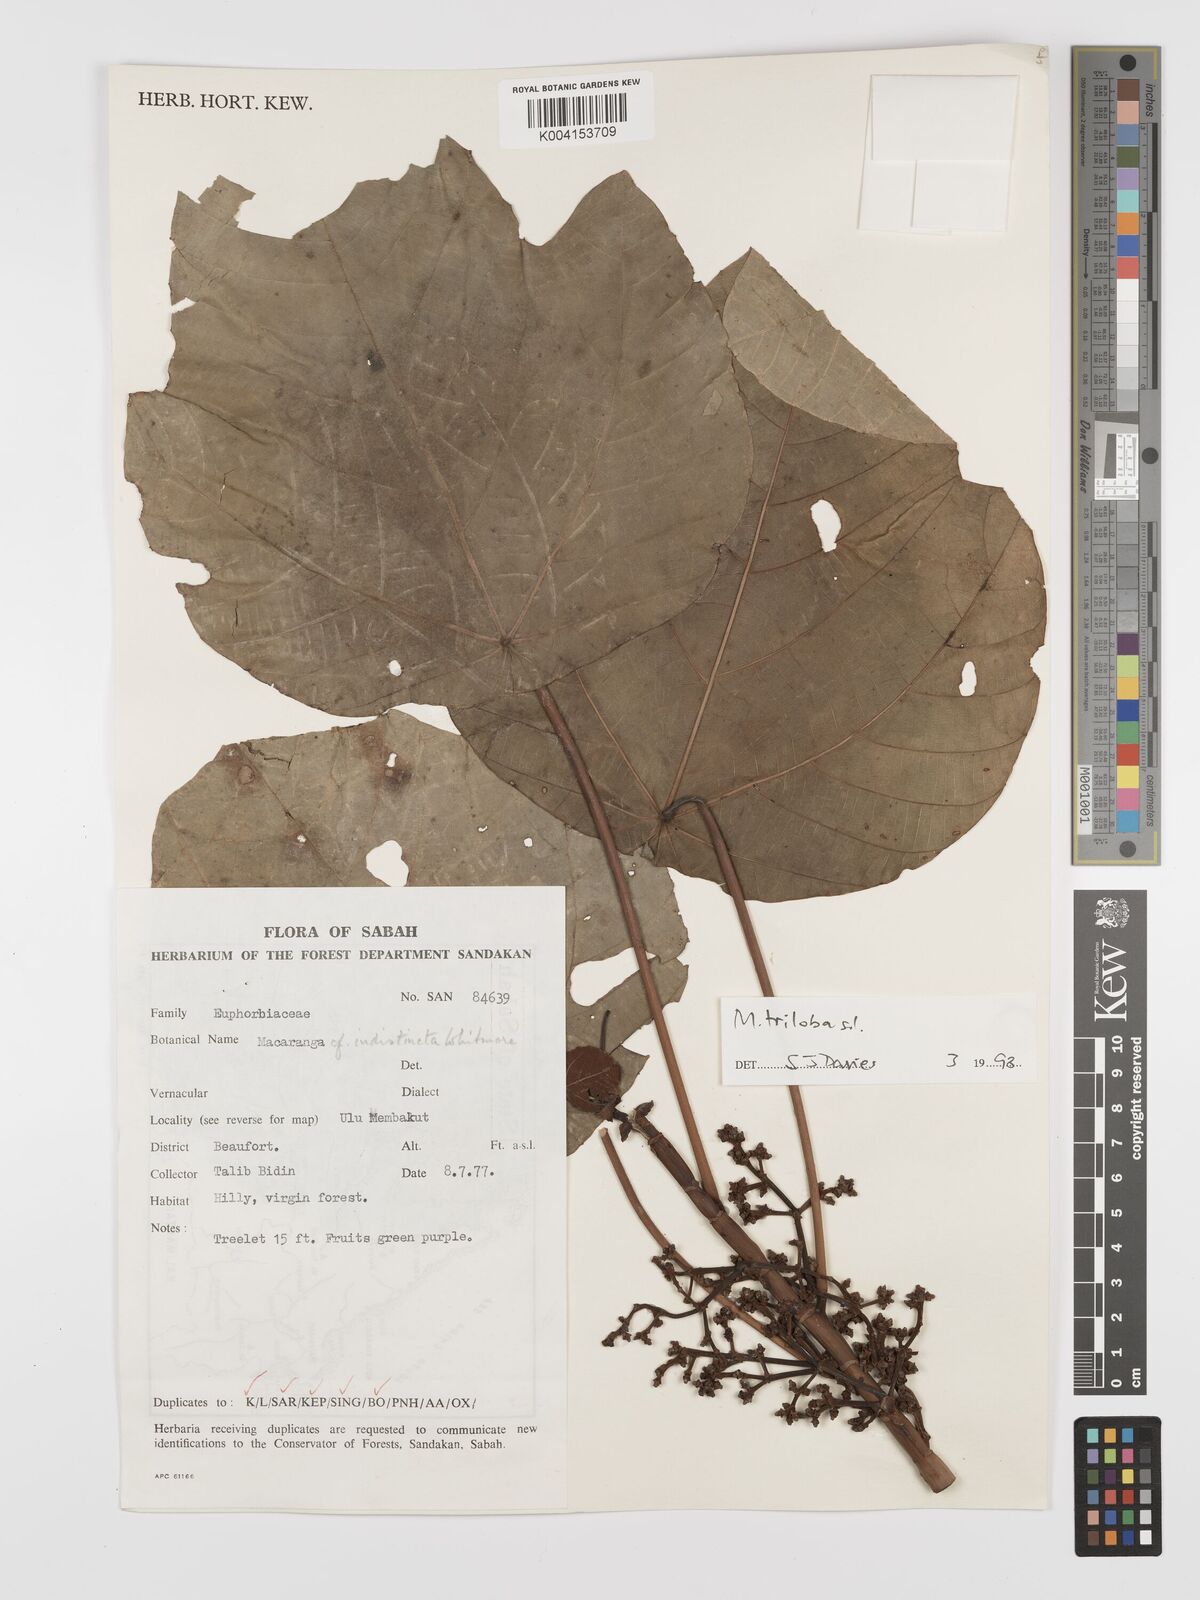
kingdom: Plantae
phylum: Tracheophyta
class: Magnoliopsida
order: Malpighiales
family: Euphorbiaceae
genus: Macaranga
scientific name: Macaranga triloba
